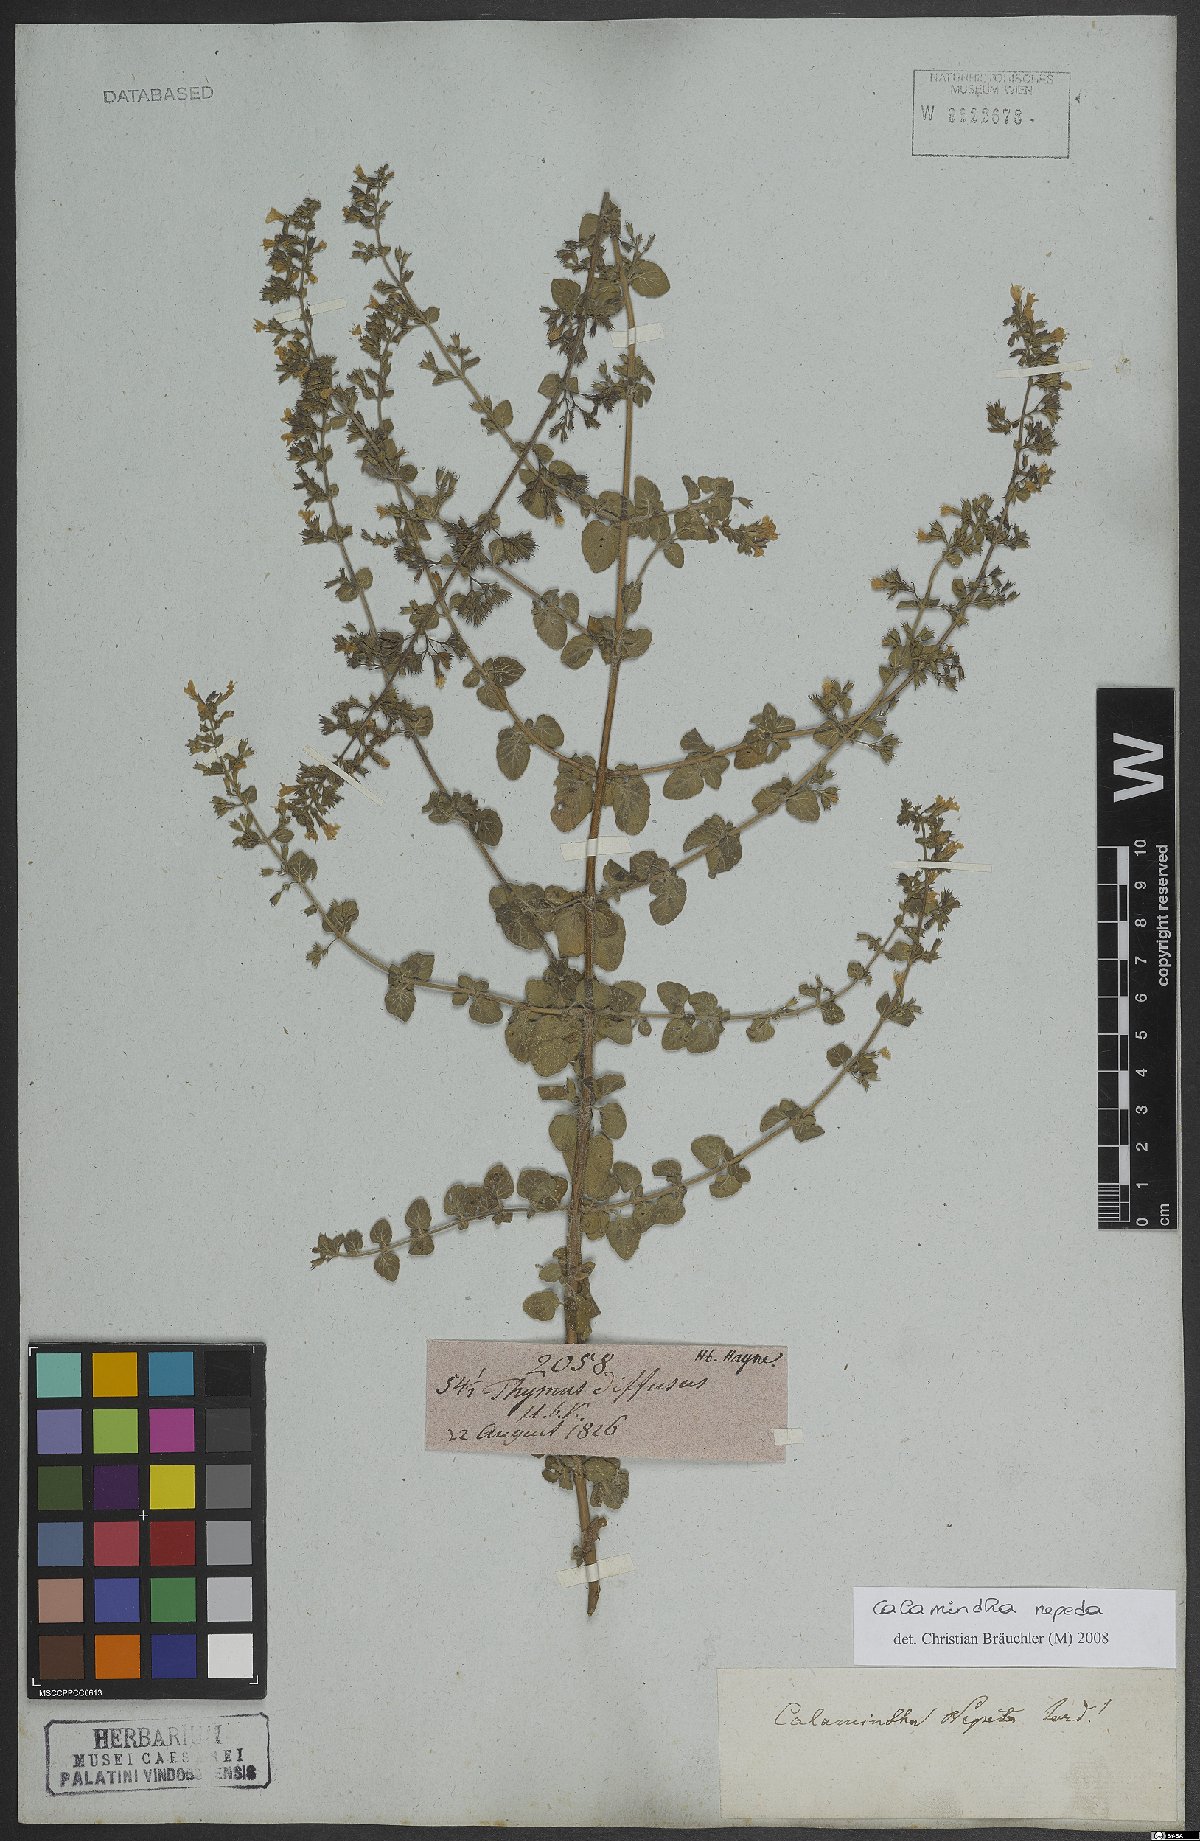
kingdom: Plantae
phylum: Tracheophyta
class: Magnoliopsida
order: Lamiales
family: Lamiaceae
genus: Clinopodium
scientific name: Clinopodium nepeta
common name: Lesser calamint
